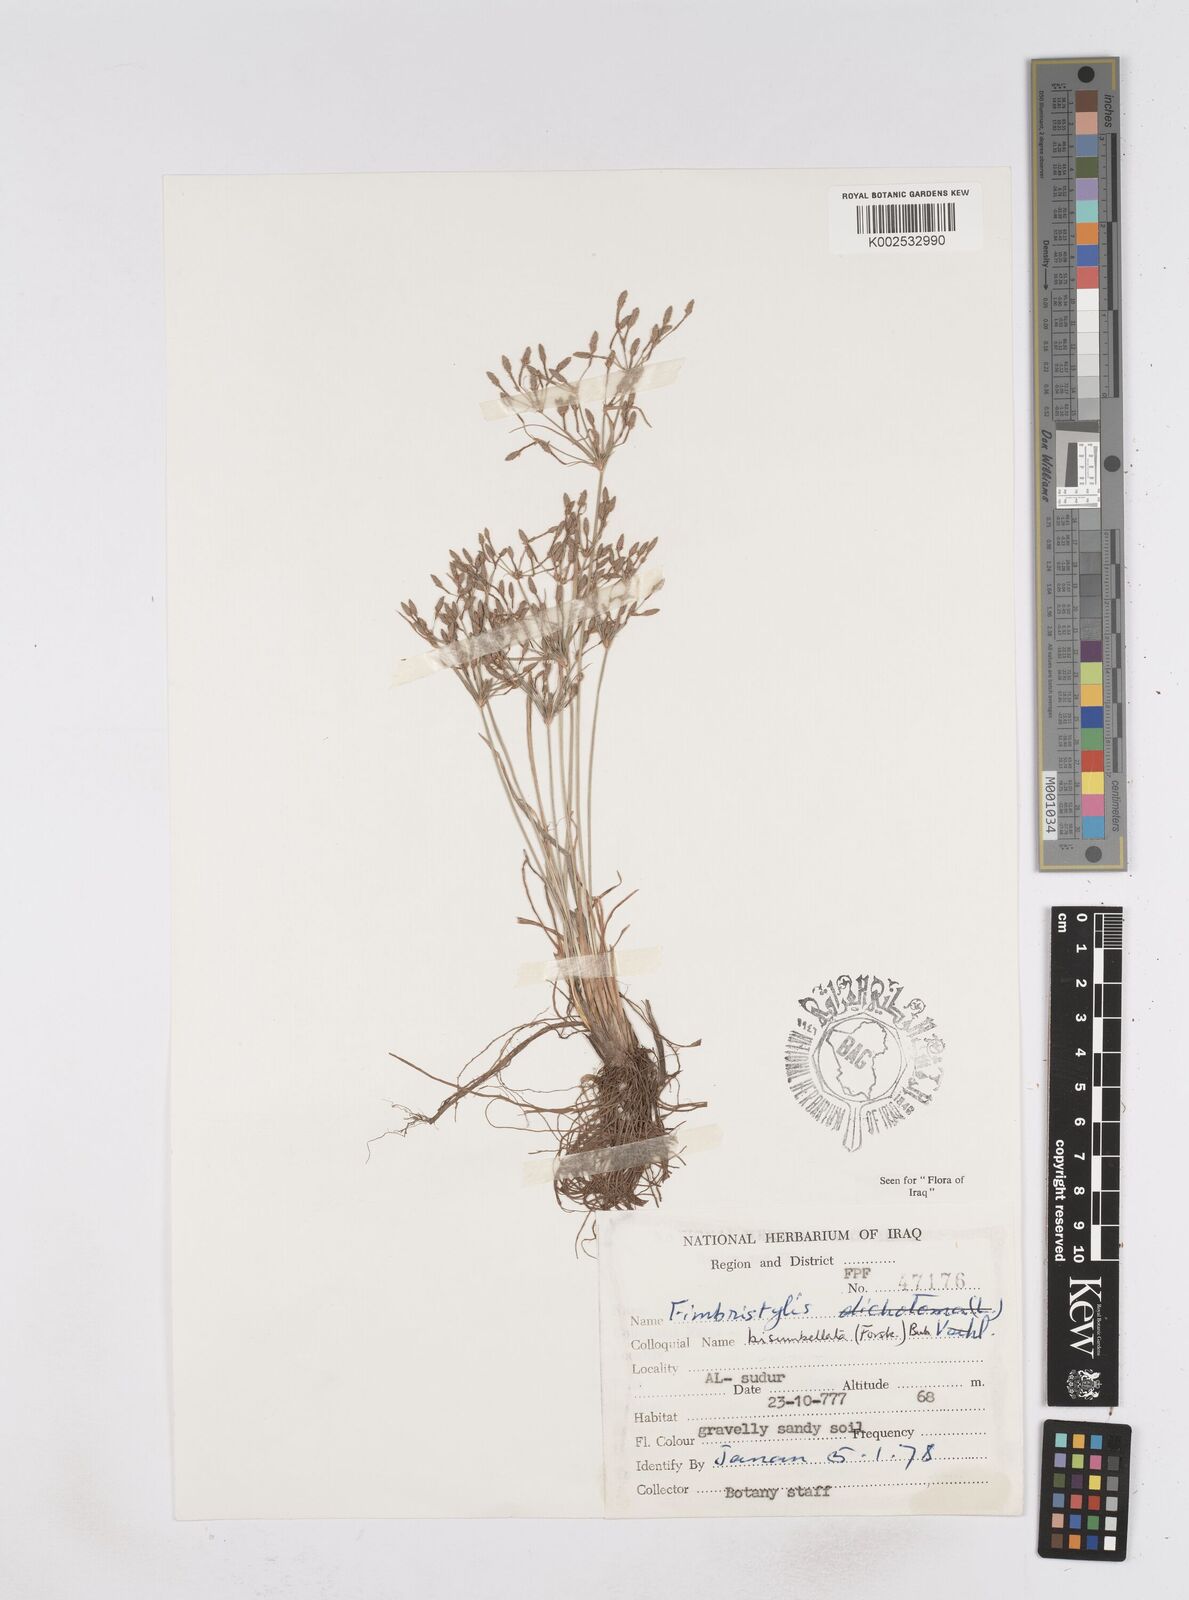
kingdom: Plantae
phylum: Tracheophyta
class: Liliopsida
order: Poales
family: Cyperaceae
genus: Fimbristylis
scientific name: Fimbristylis bisumbellata
